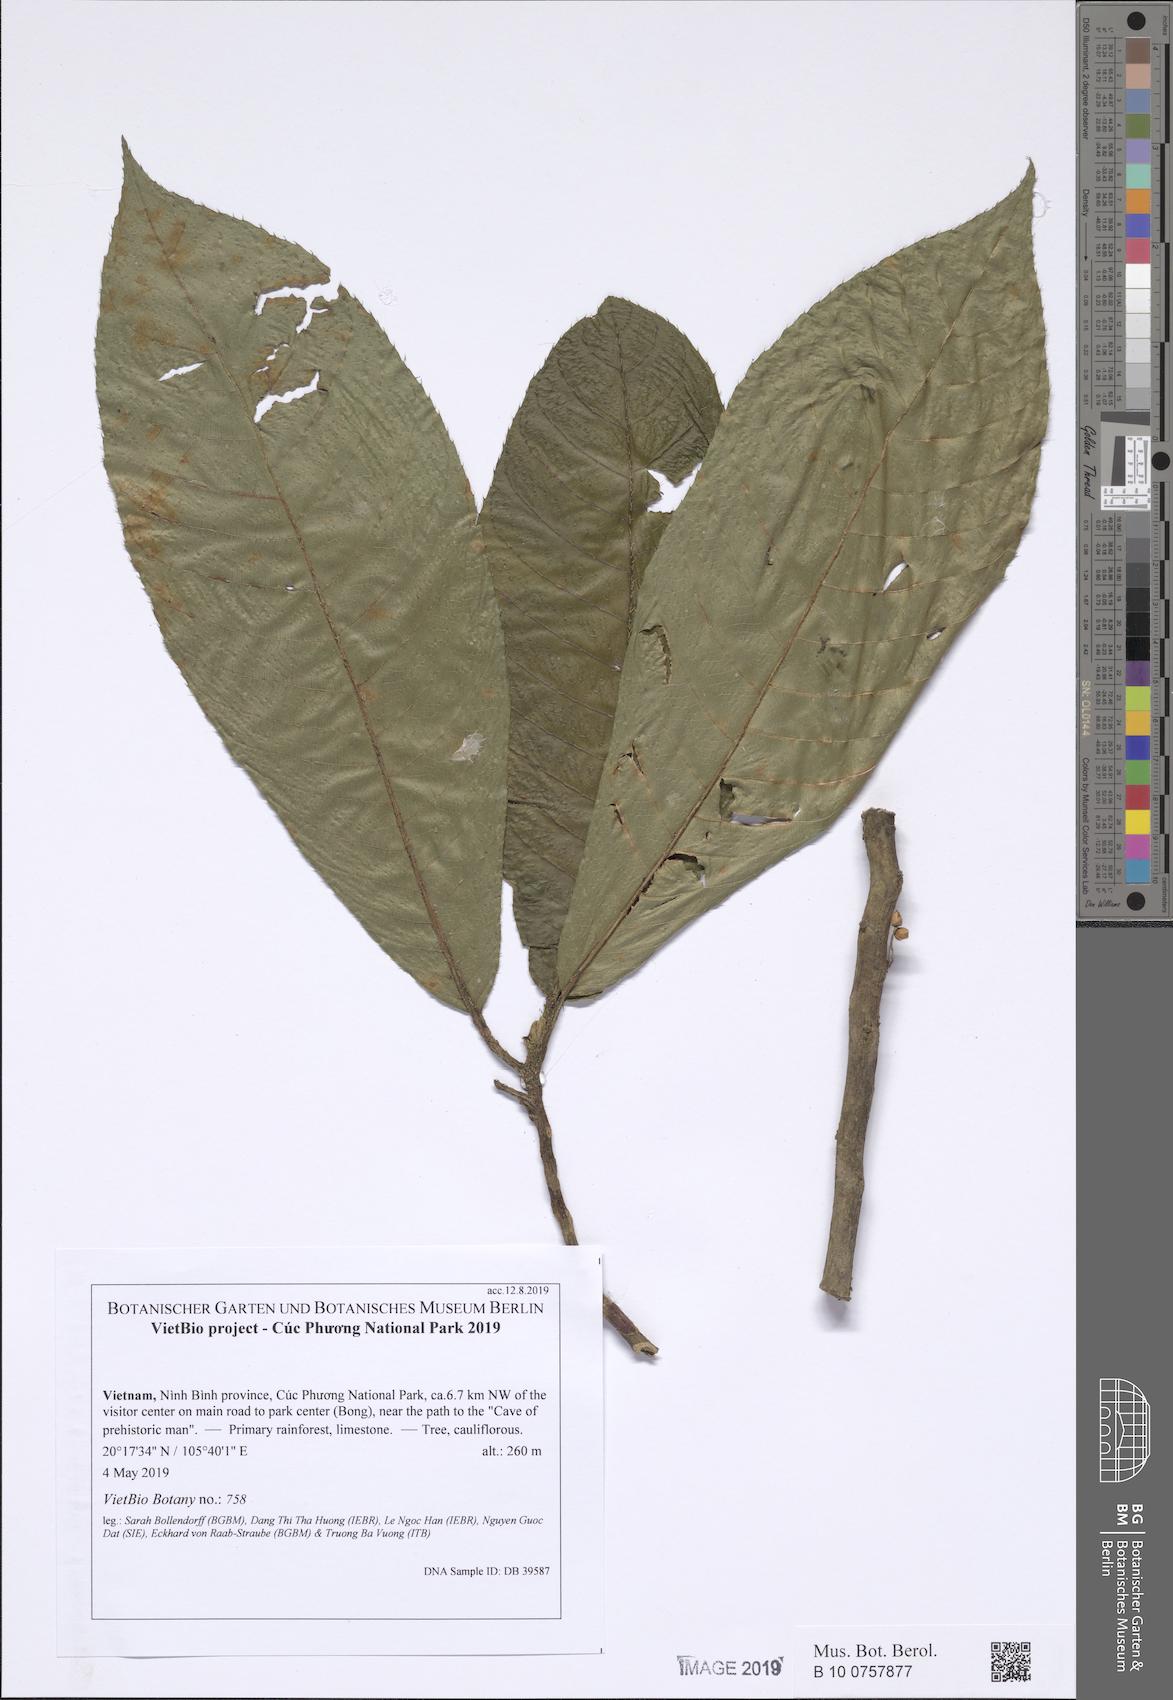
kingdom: Plantae
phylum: Tracheophyta
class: Magnoliopsida
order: Ericales
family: Actinidiaceae
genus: Saurauia
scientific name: Saurauia roxburghii
